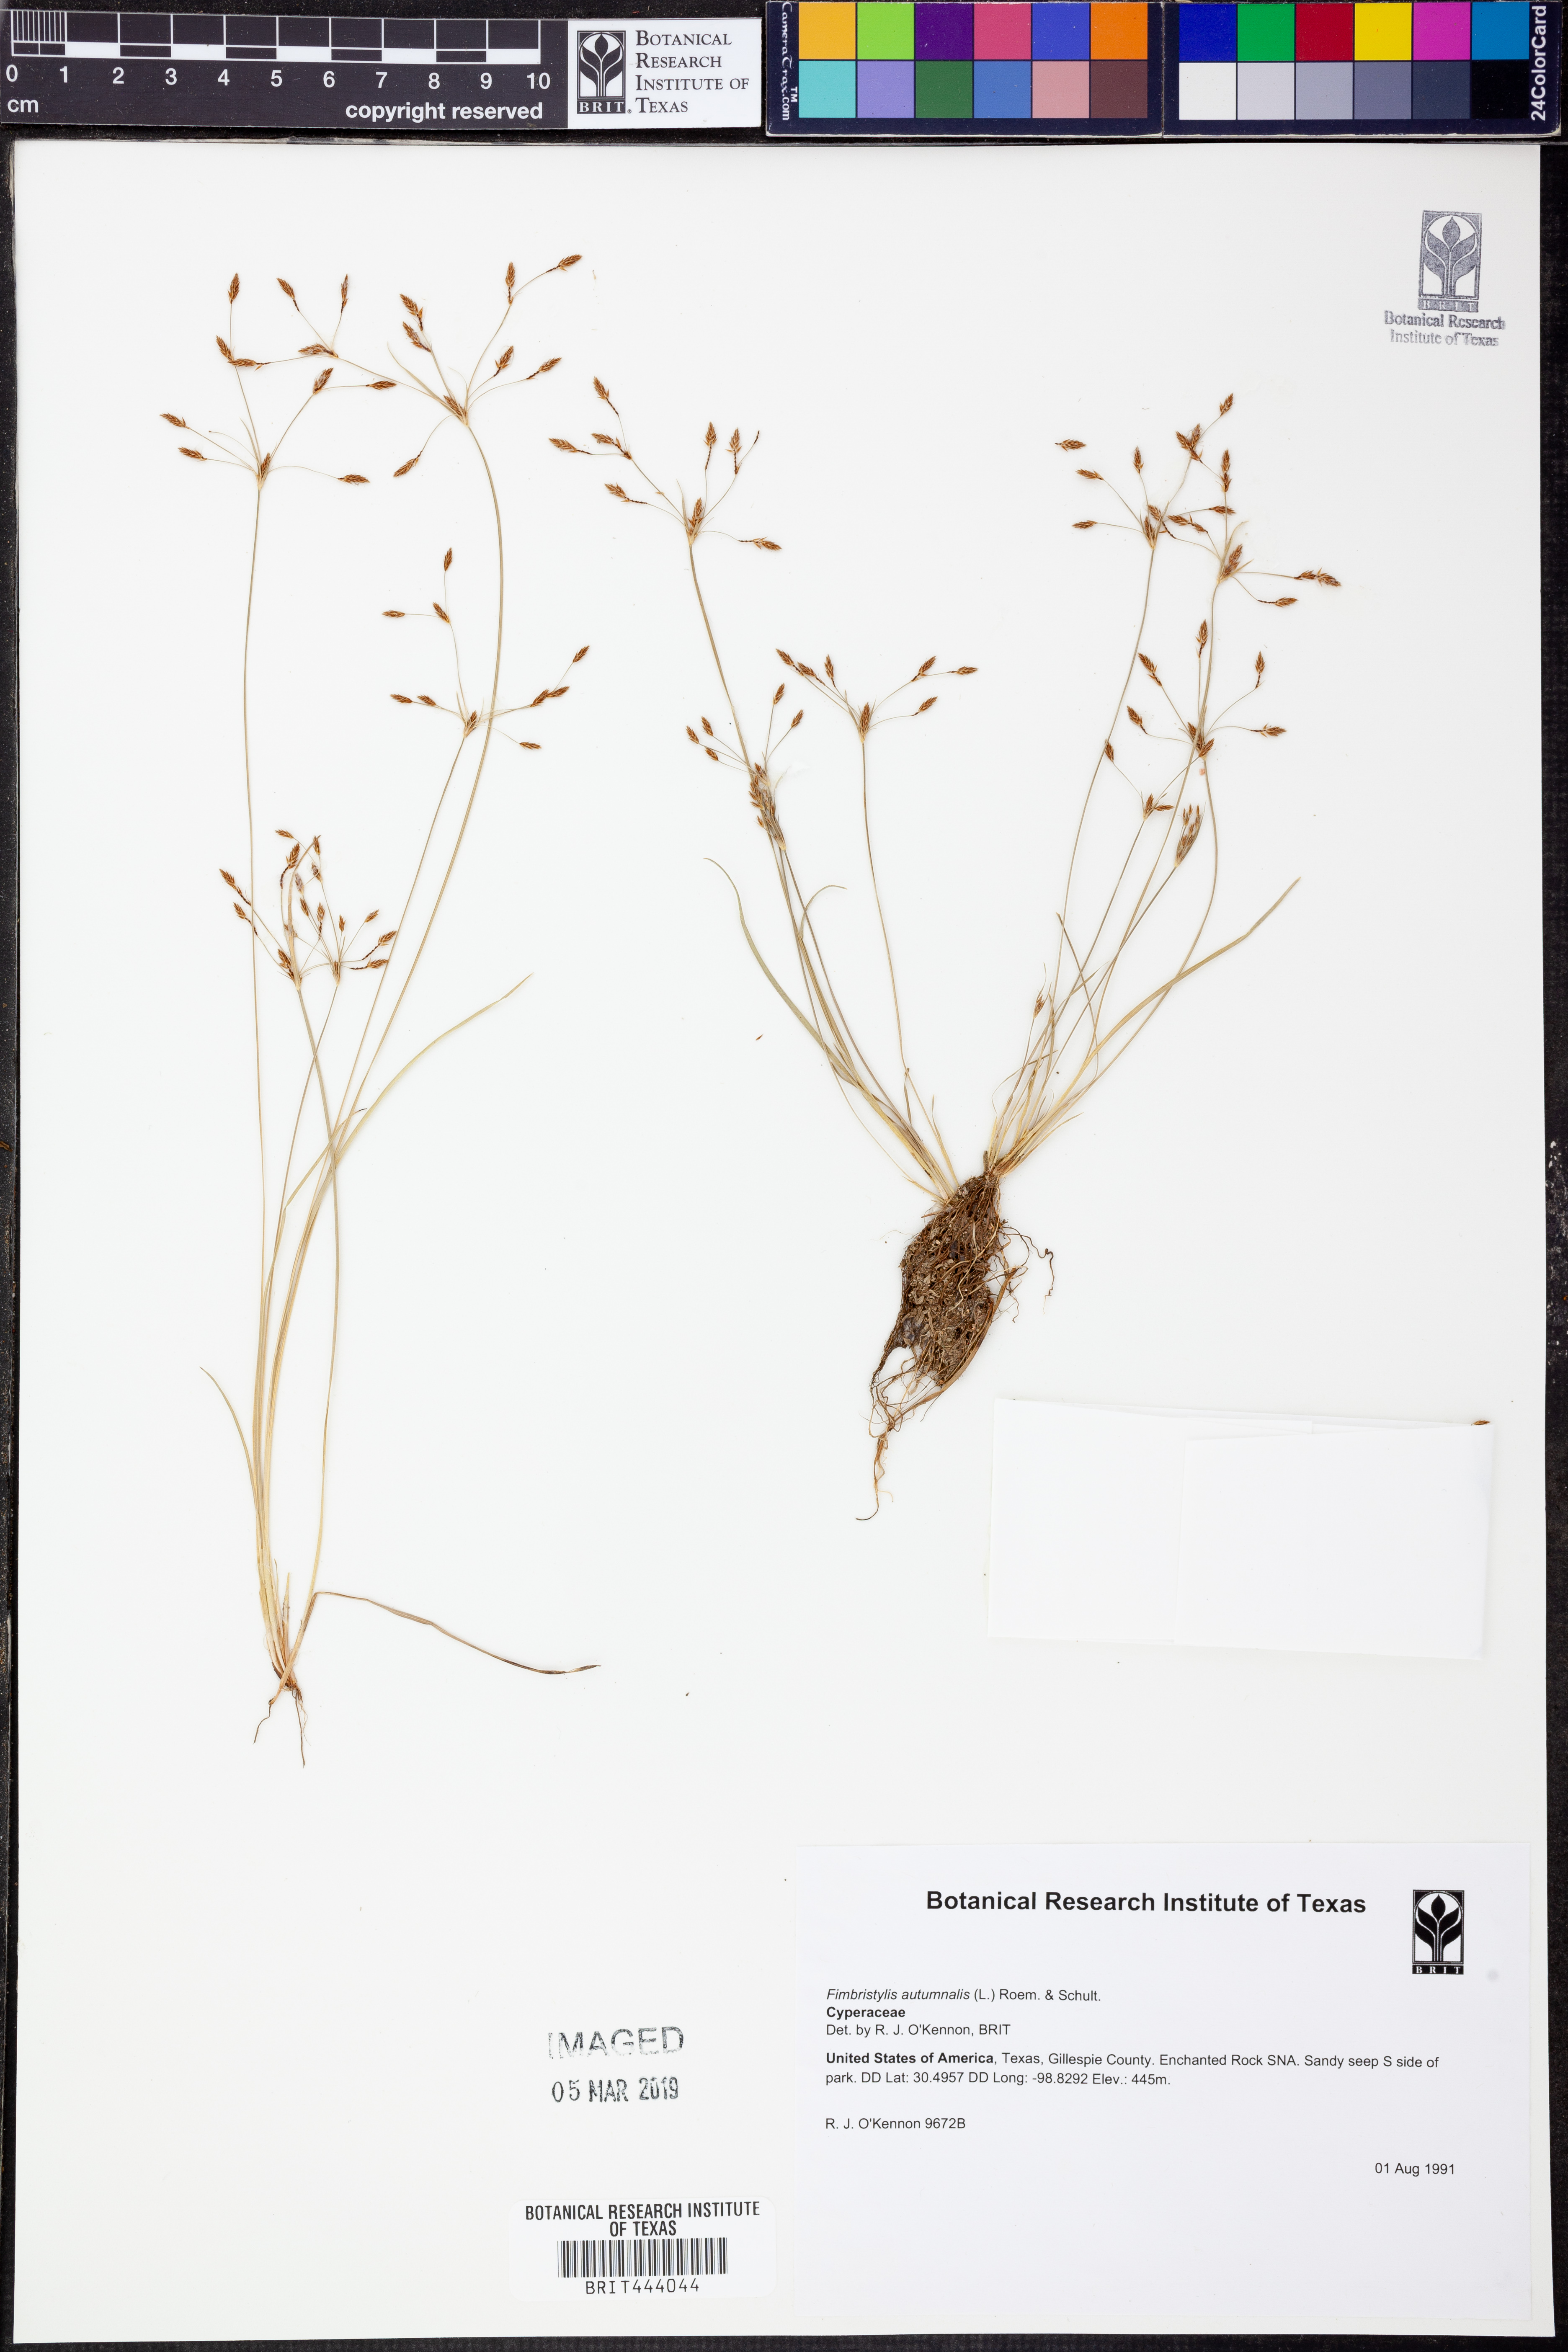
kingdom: Plantae
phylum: Tracheophyta
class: Liliopsida
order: Poales
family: Cyperaceae
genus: Fimbristylis
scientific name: Fimbristylis autumnalis
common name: Slender fimbristylis
